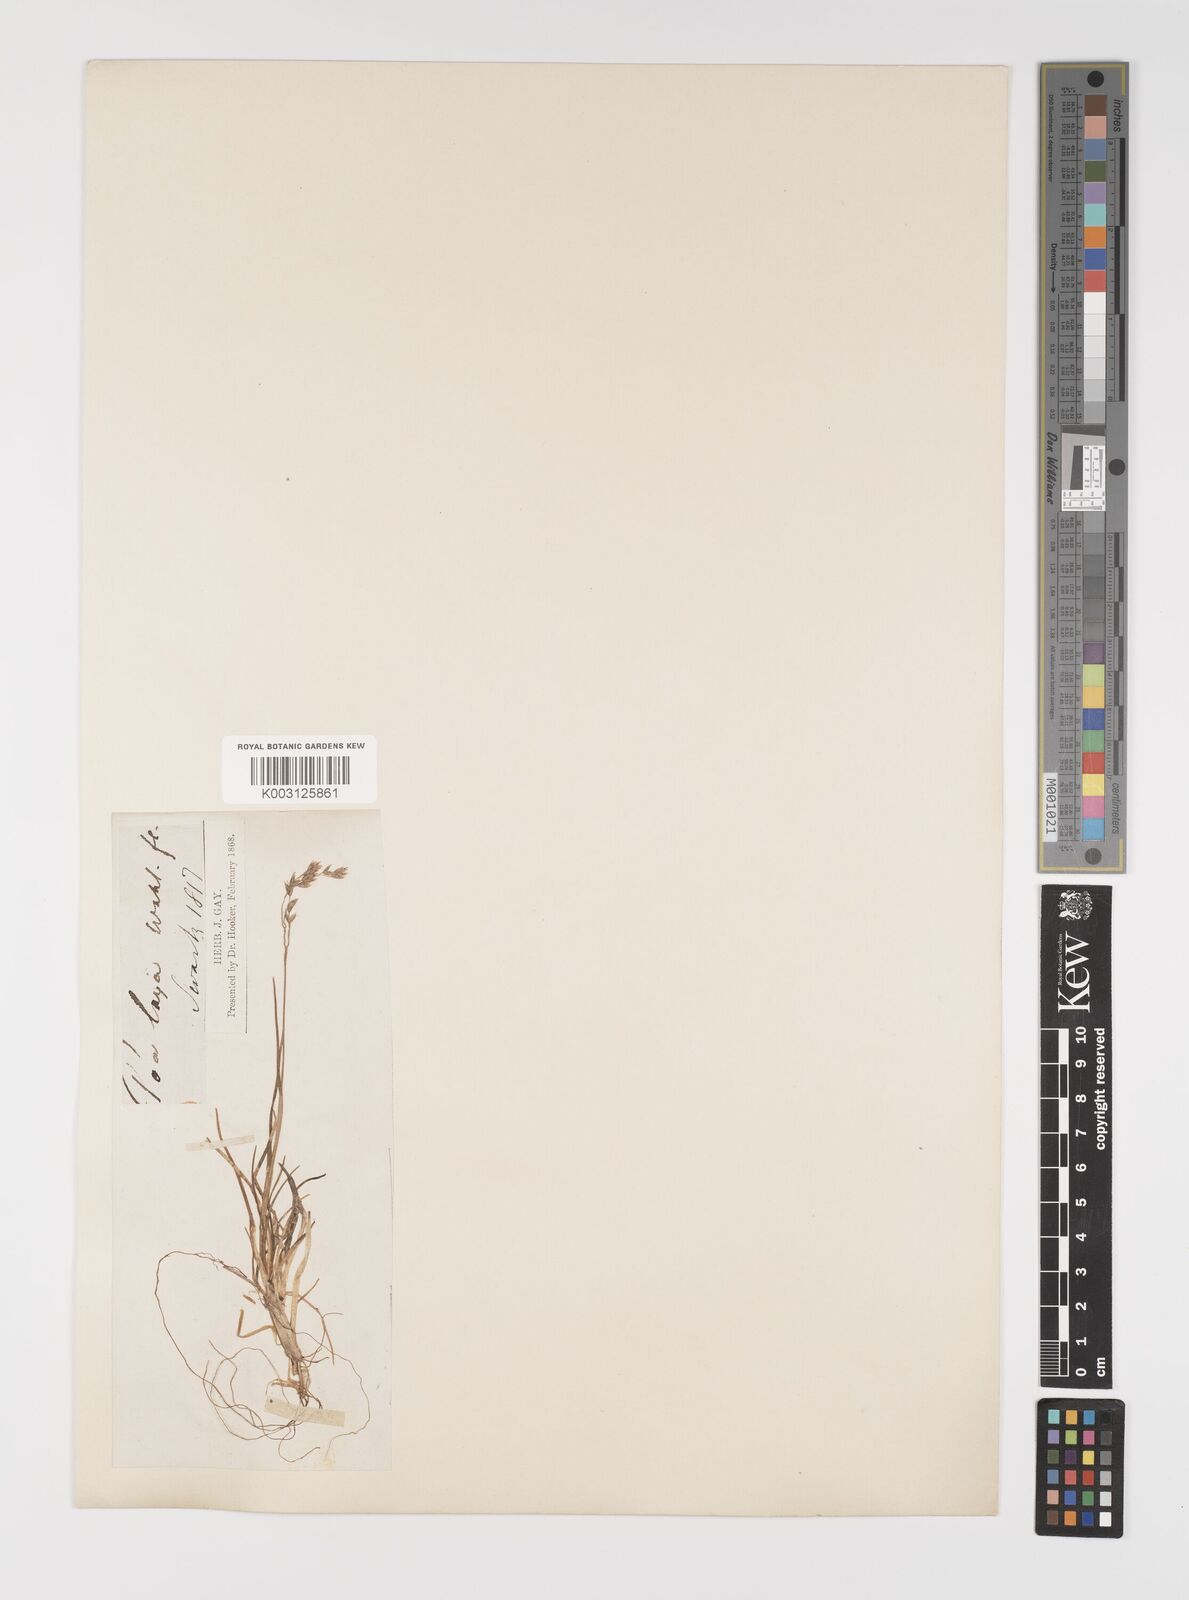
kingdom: Plantae
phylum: Tracheophyta
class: Liliopsida
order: Poales
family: Poaceae
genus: Eragrostis
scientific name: Eragrostis cilianensis
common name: Stinkgrass
